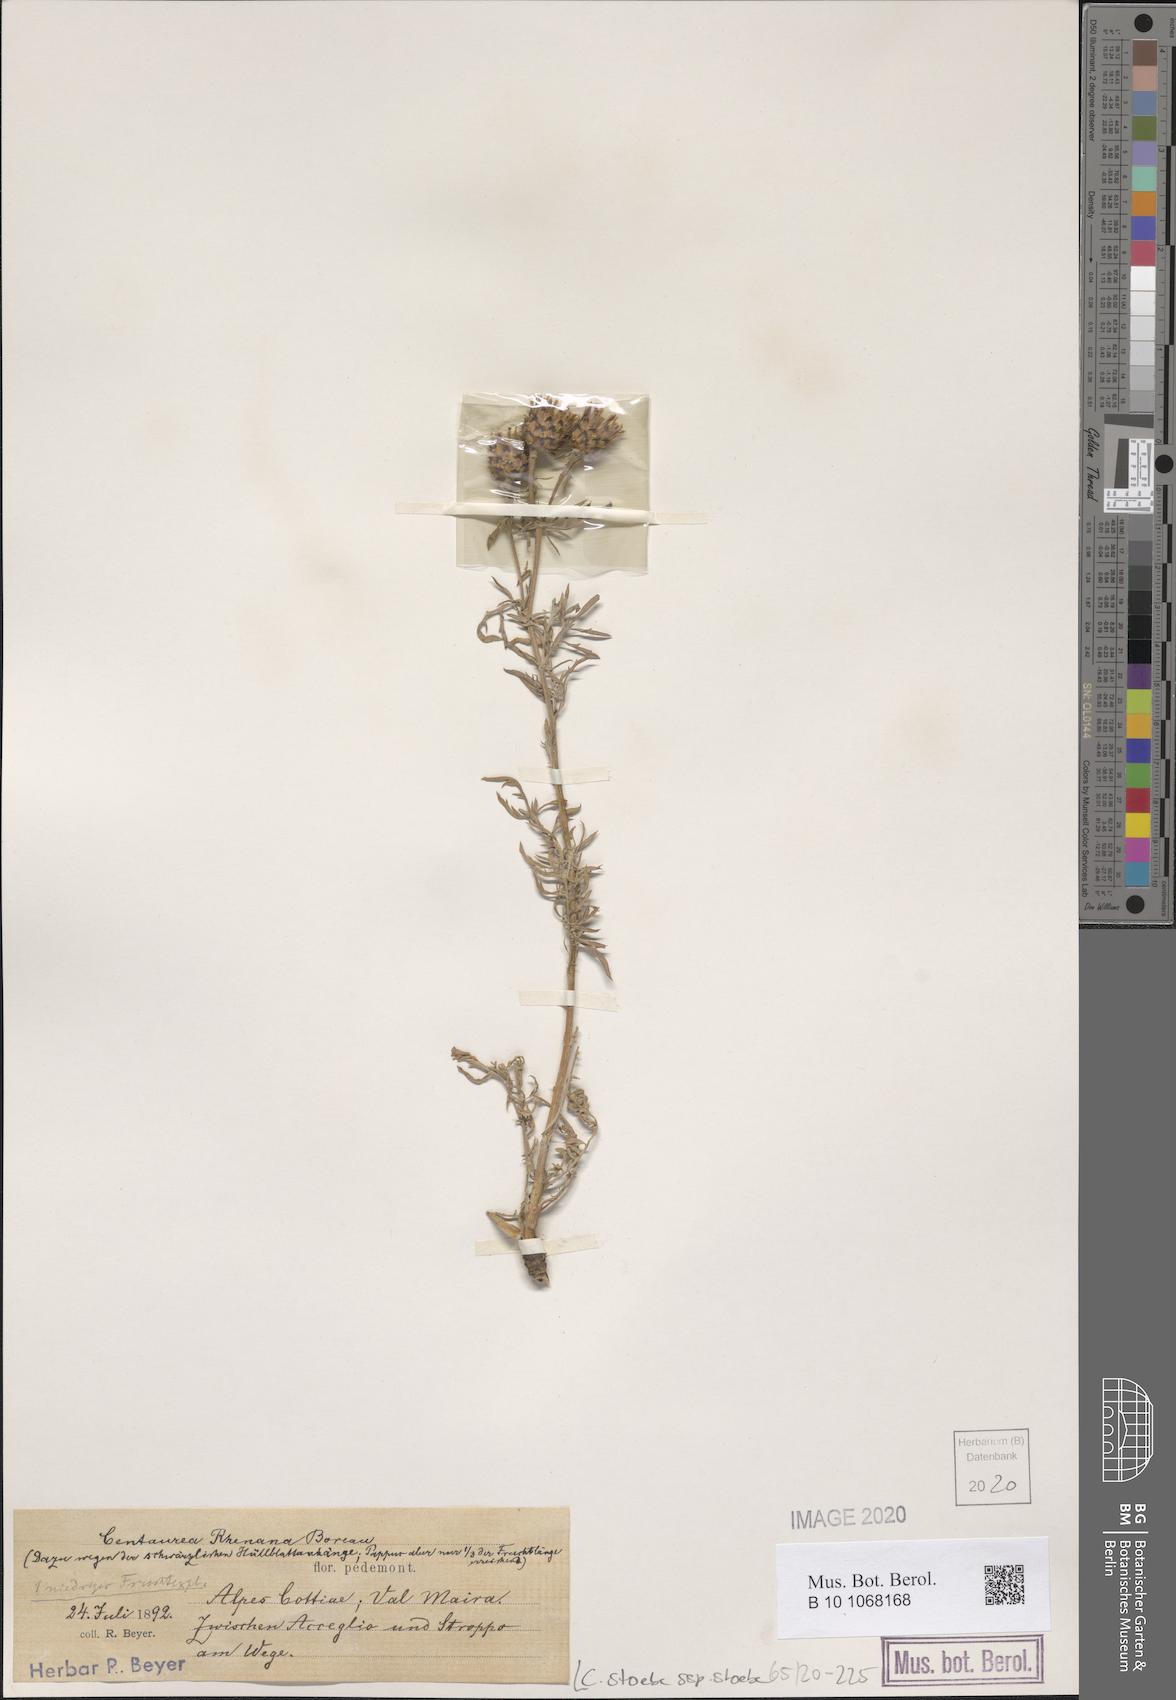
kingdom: Plantae
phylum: Tracheophyta
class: Magnoliopsida
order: Asterales
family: Asteraceae
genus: Centaurea
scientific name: Centaurea stoebe
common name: Spotted knapweed
